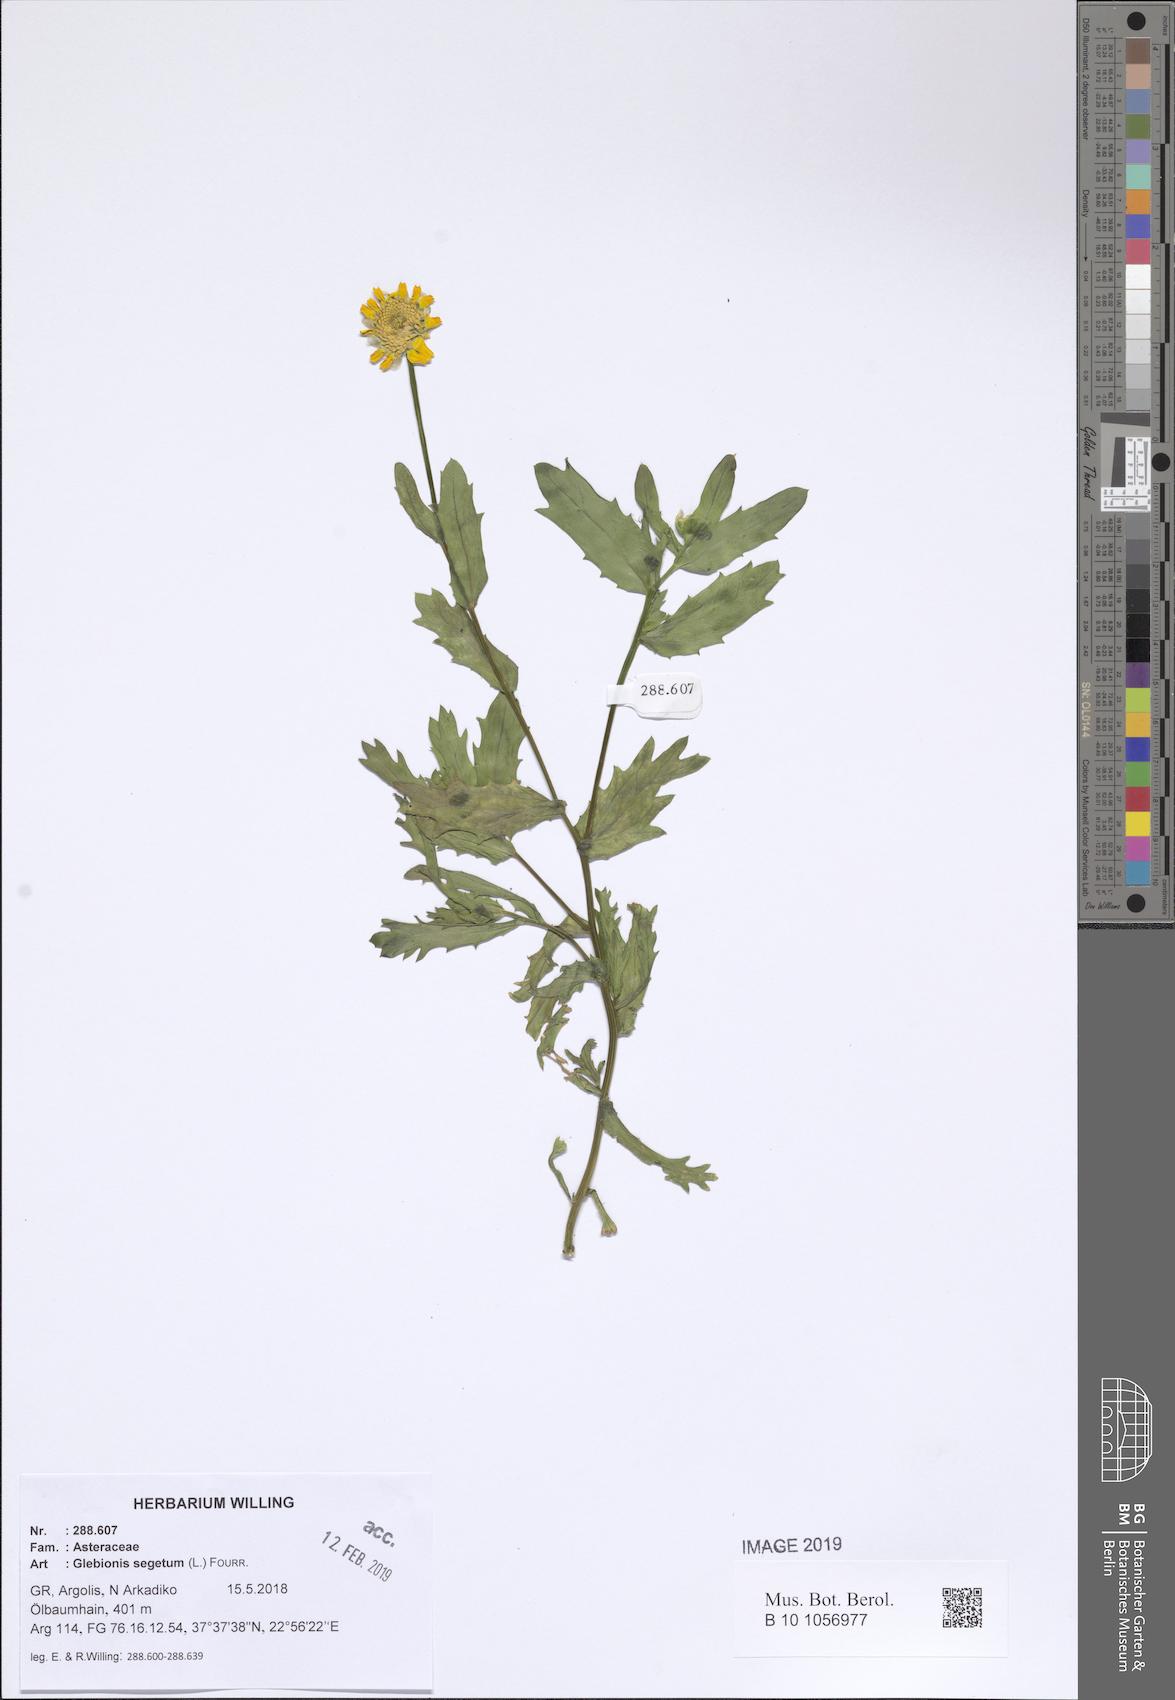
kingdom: Plantae
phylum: Tracheophyta
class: Magnoliopsida
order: Asterales
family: Asteraceae
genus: Glebionis
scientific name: Glebionis segetum
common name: Corndaisy
